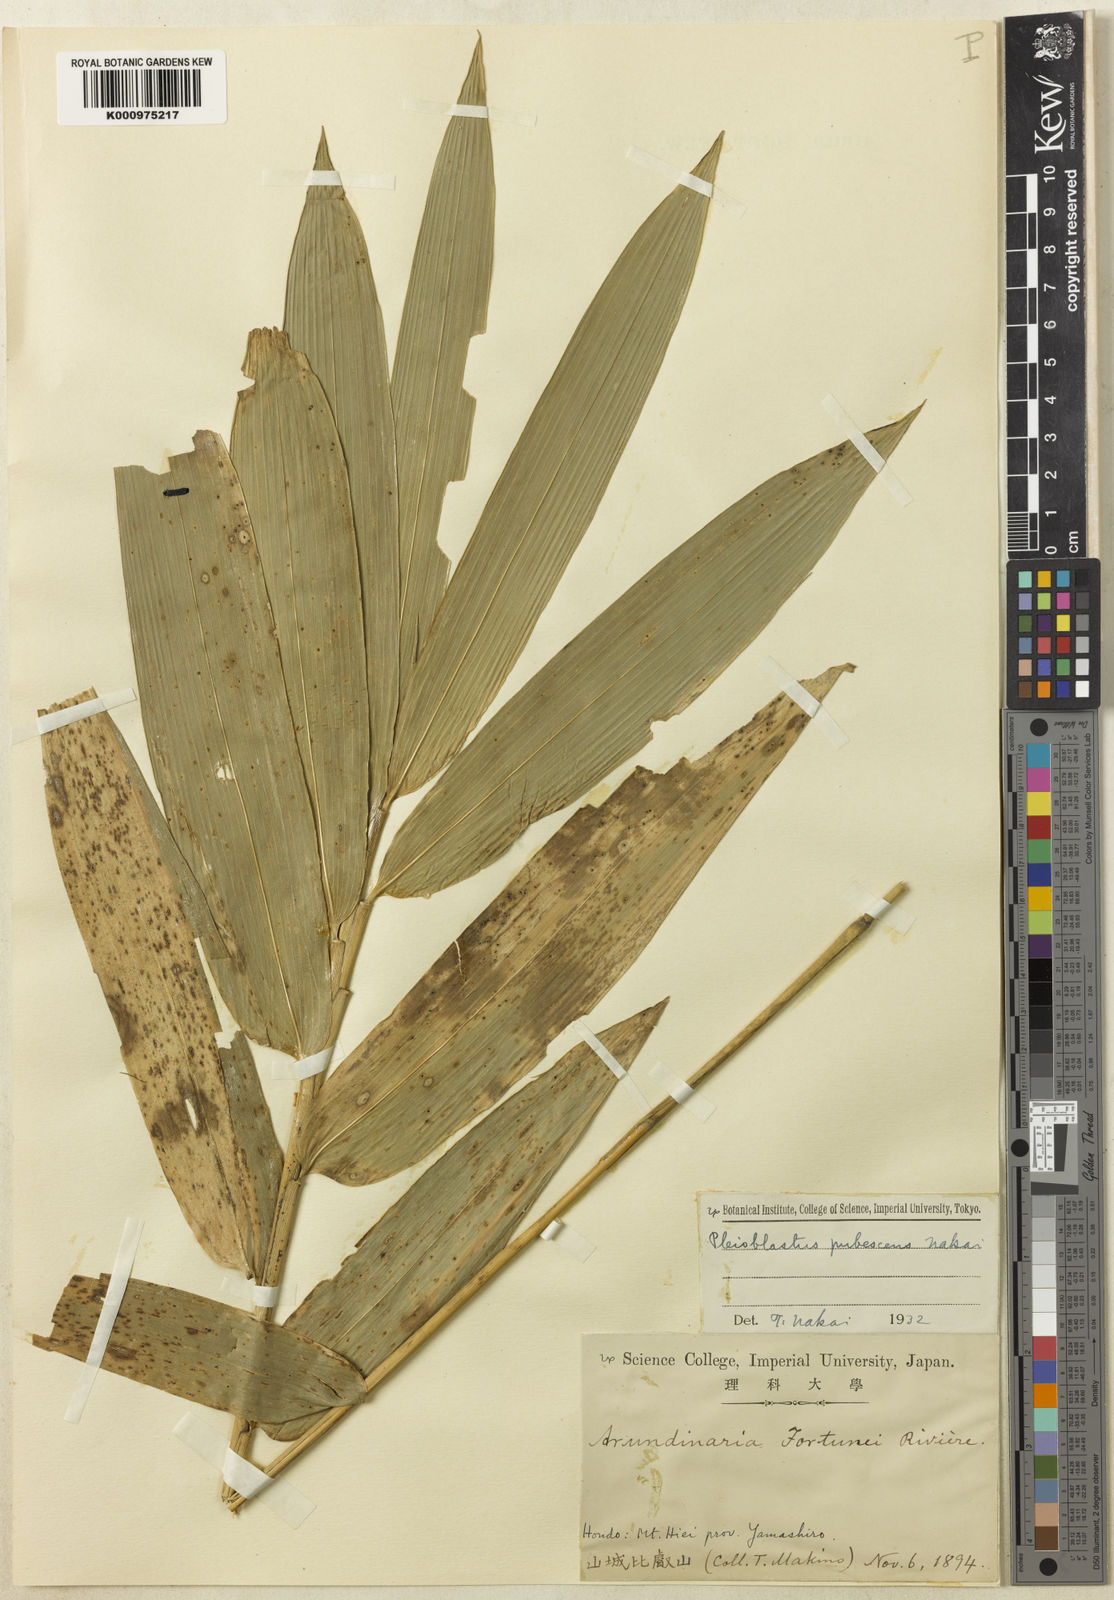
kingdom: Plantae
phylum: Tracheophyta
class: Liliopsida
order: Poales
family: Poaceae
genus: Sasaella
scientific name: Sasaella ramosa
